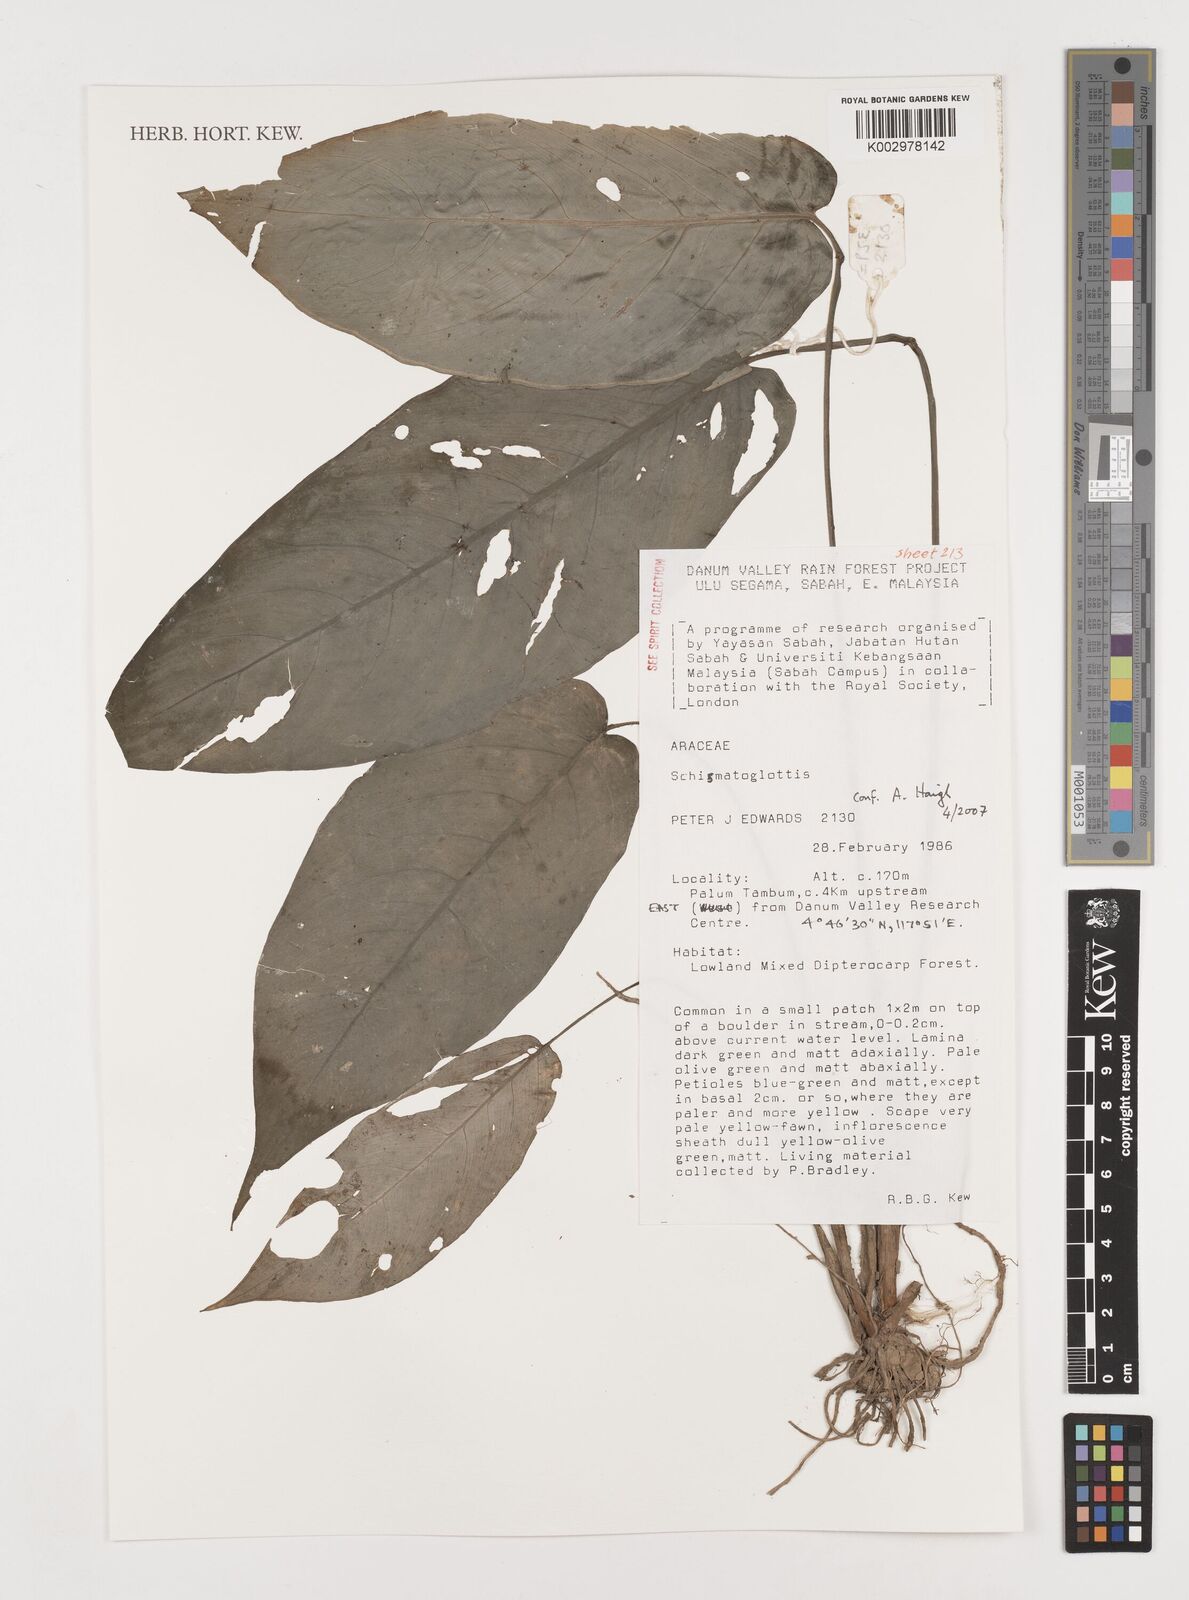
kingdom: Plantae
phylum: Tracheophyta
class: Liliopsida
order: Alismatales
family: Araceae
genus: Schismatoglottis
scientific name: Schismatoglottis
